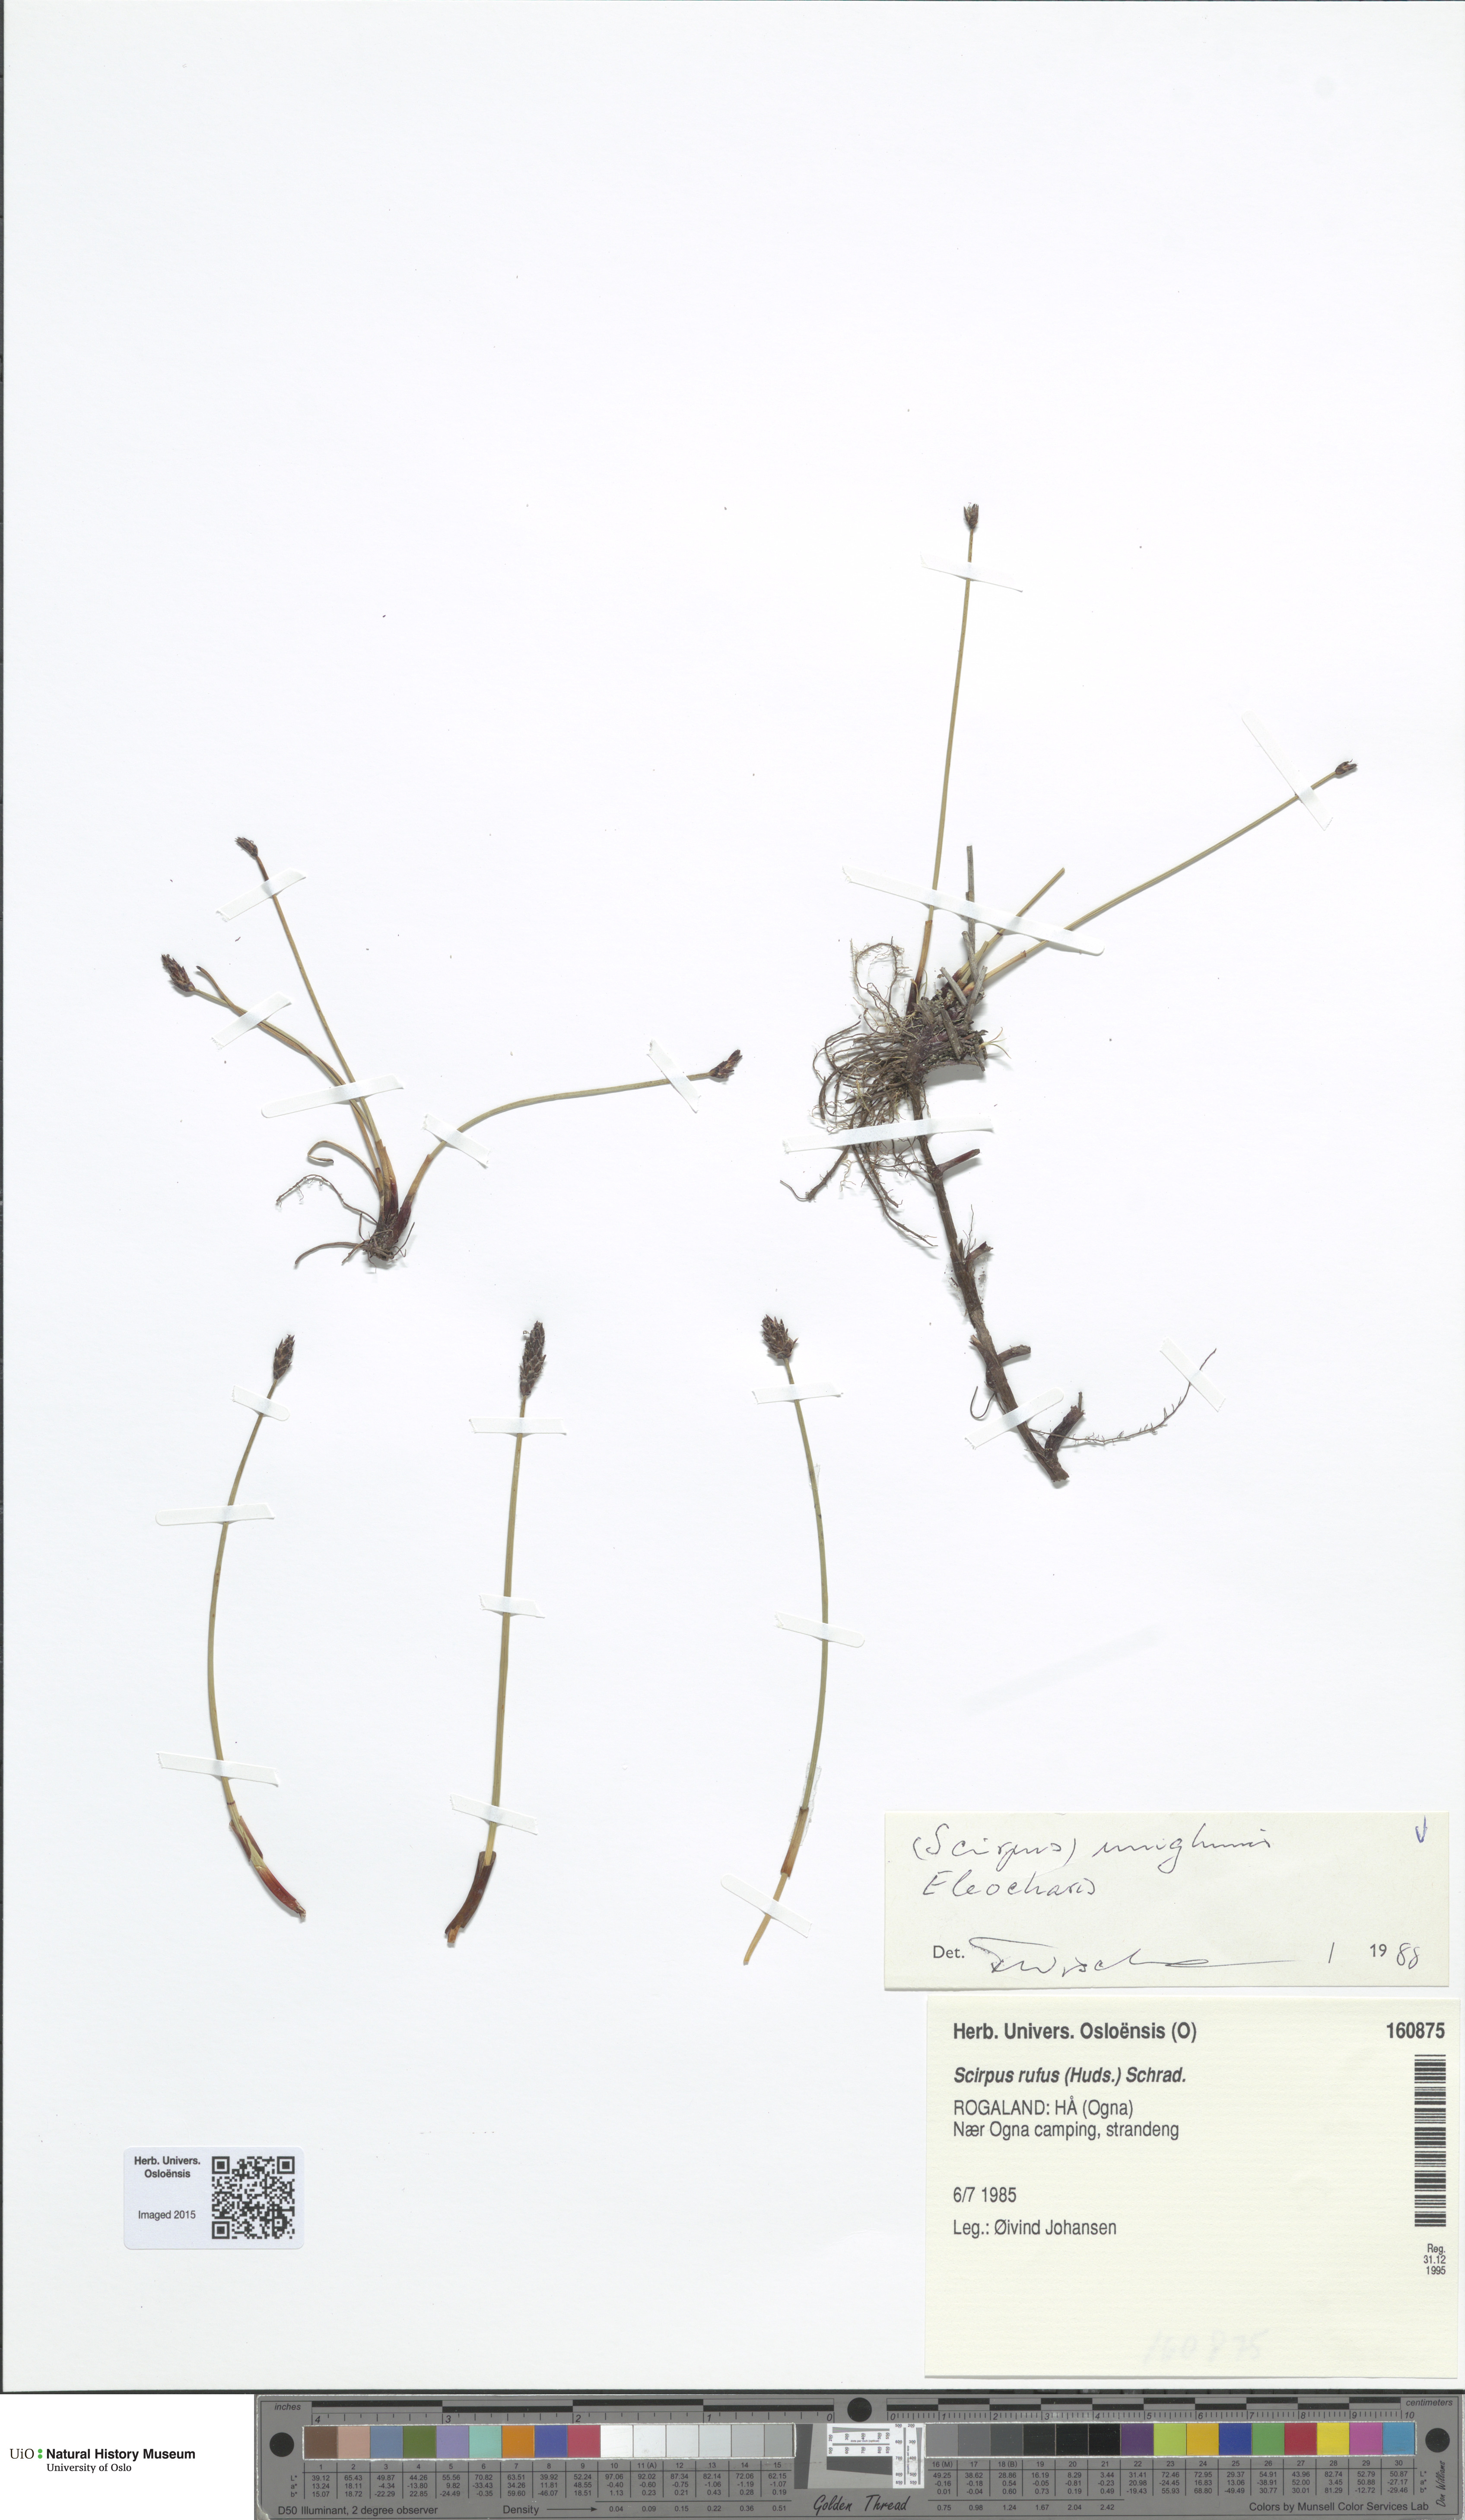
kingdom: Plantae
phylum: Tracheophyta
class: Liliopsida
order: Poales
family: Cyperaceae
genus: Eleocharis
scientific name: Eleocharis uniglumis
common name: Slender spike-rush
